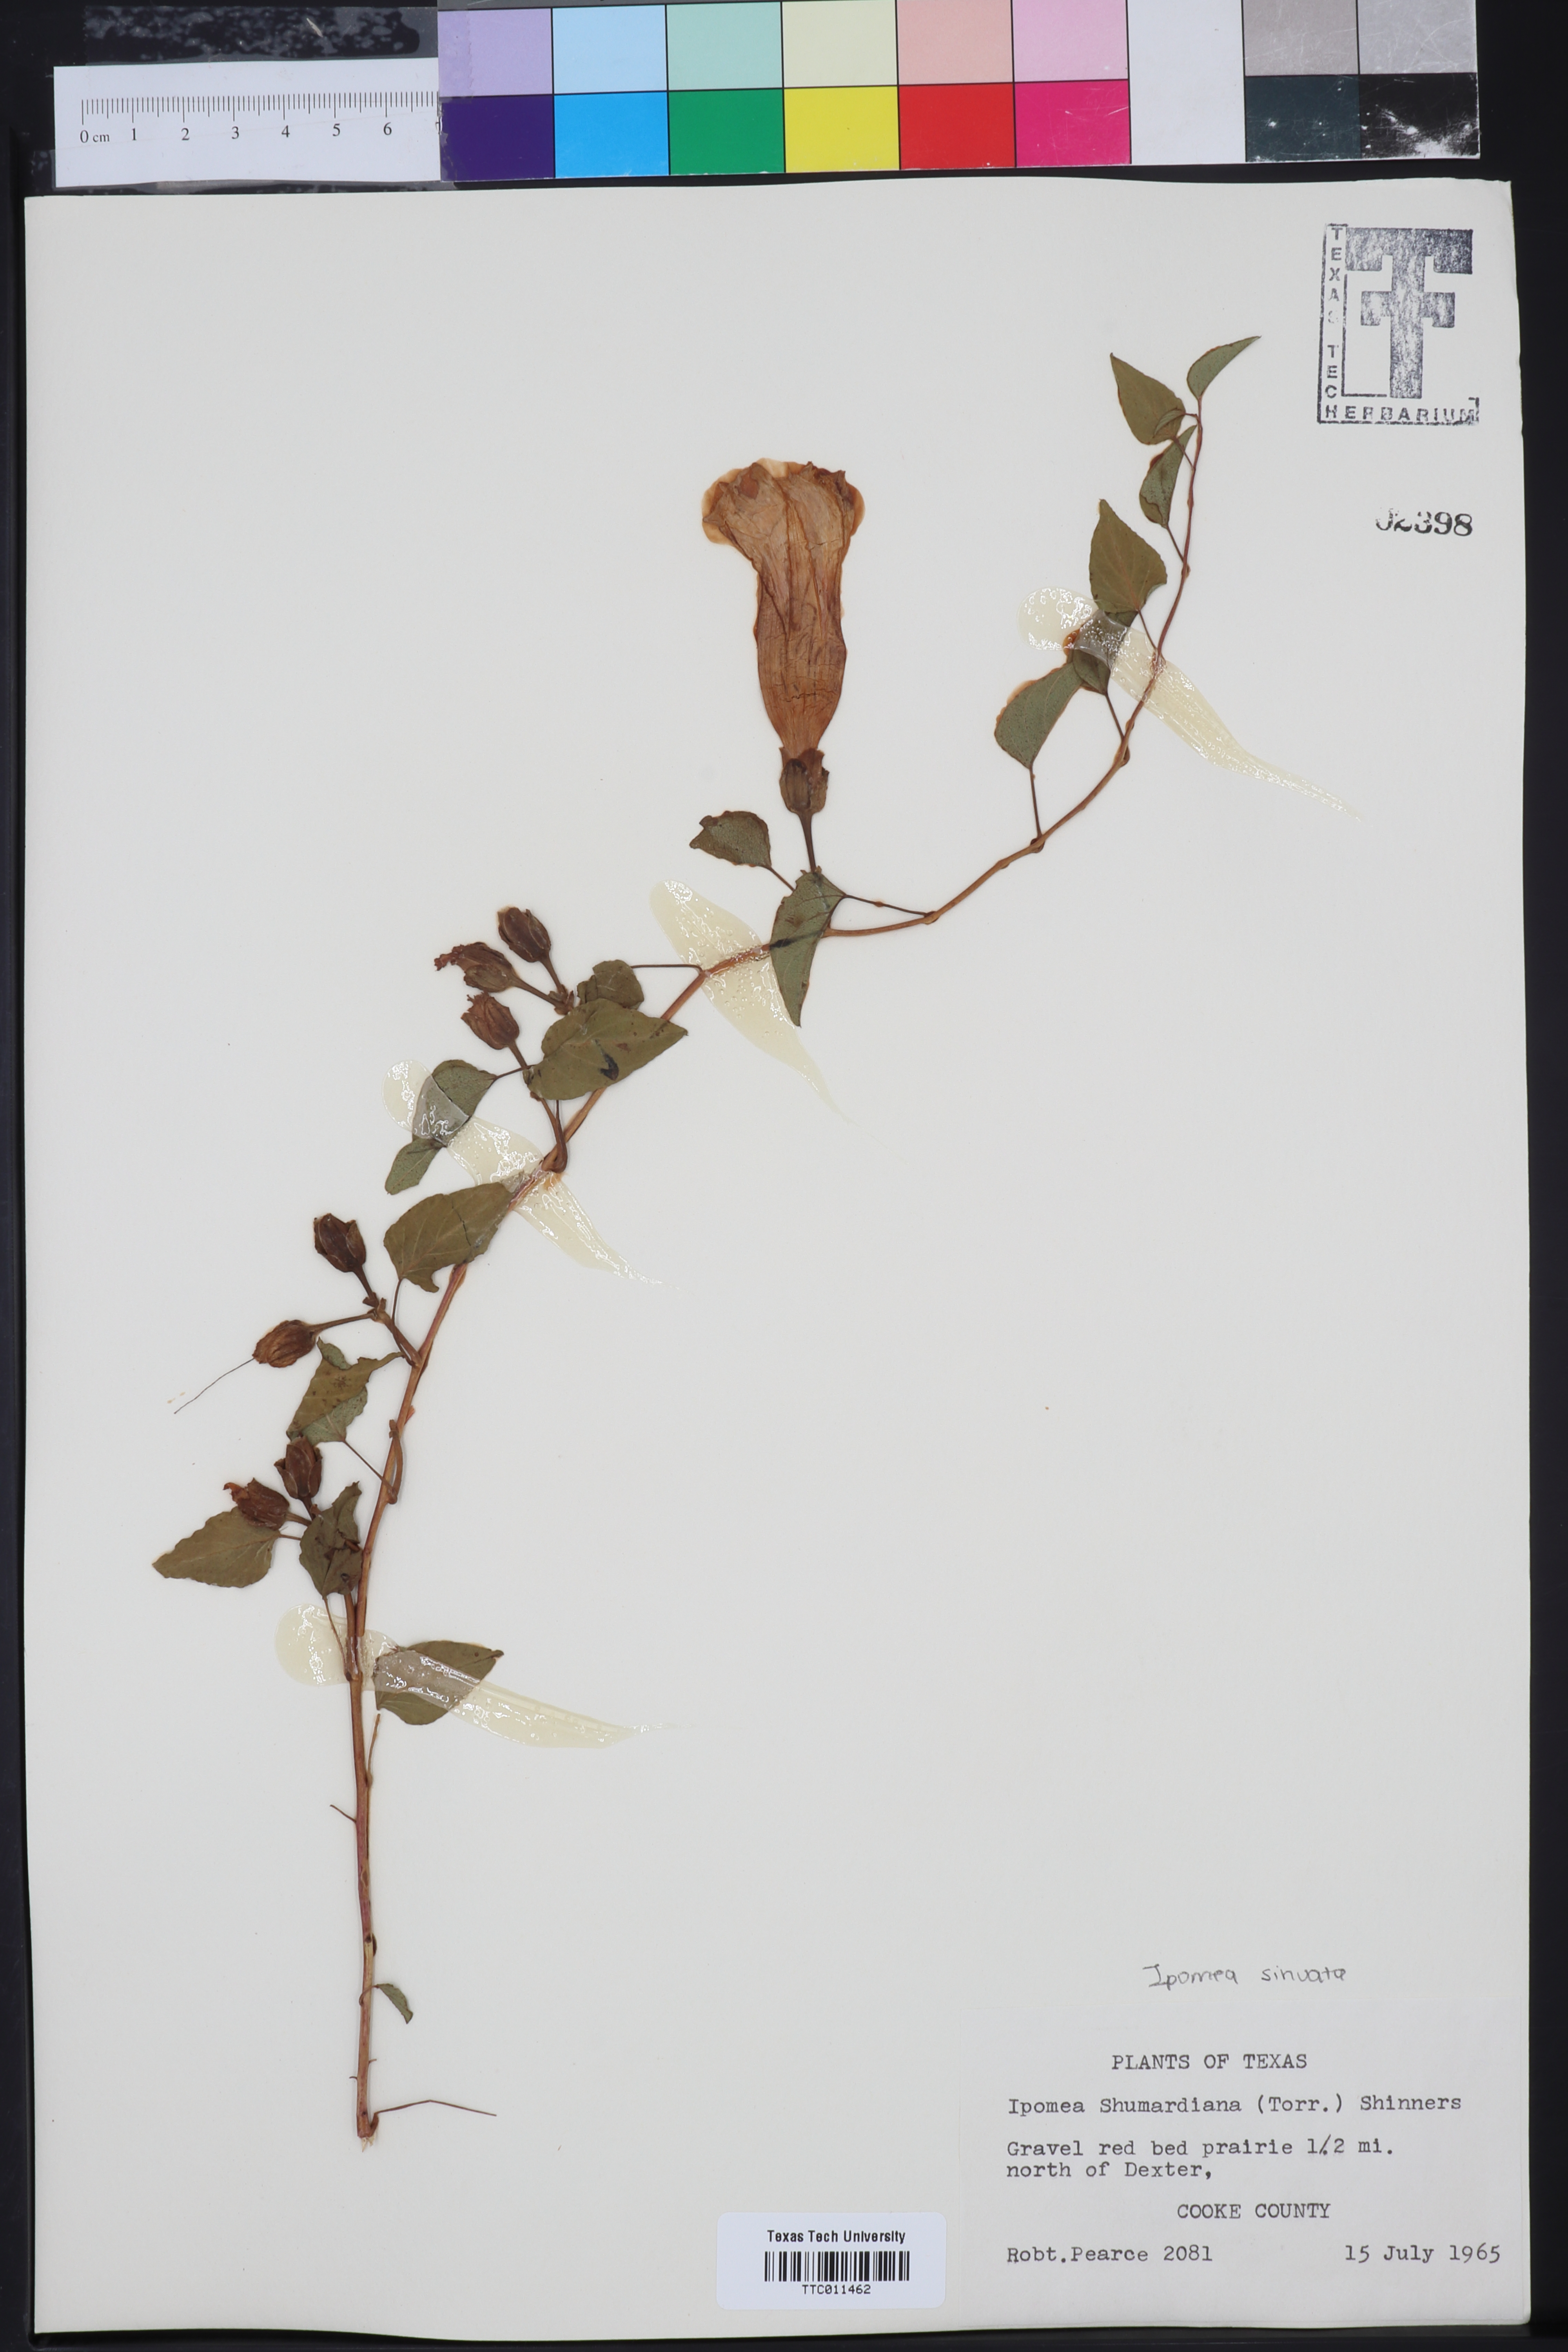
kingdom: Plantae
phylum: Tracheophyta
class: Magnoliopsida
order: Solanales
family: Convolvulaceae
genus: Ipomoea
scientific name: Ipomoea shumardiana
